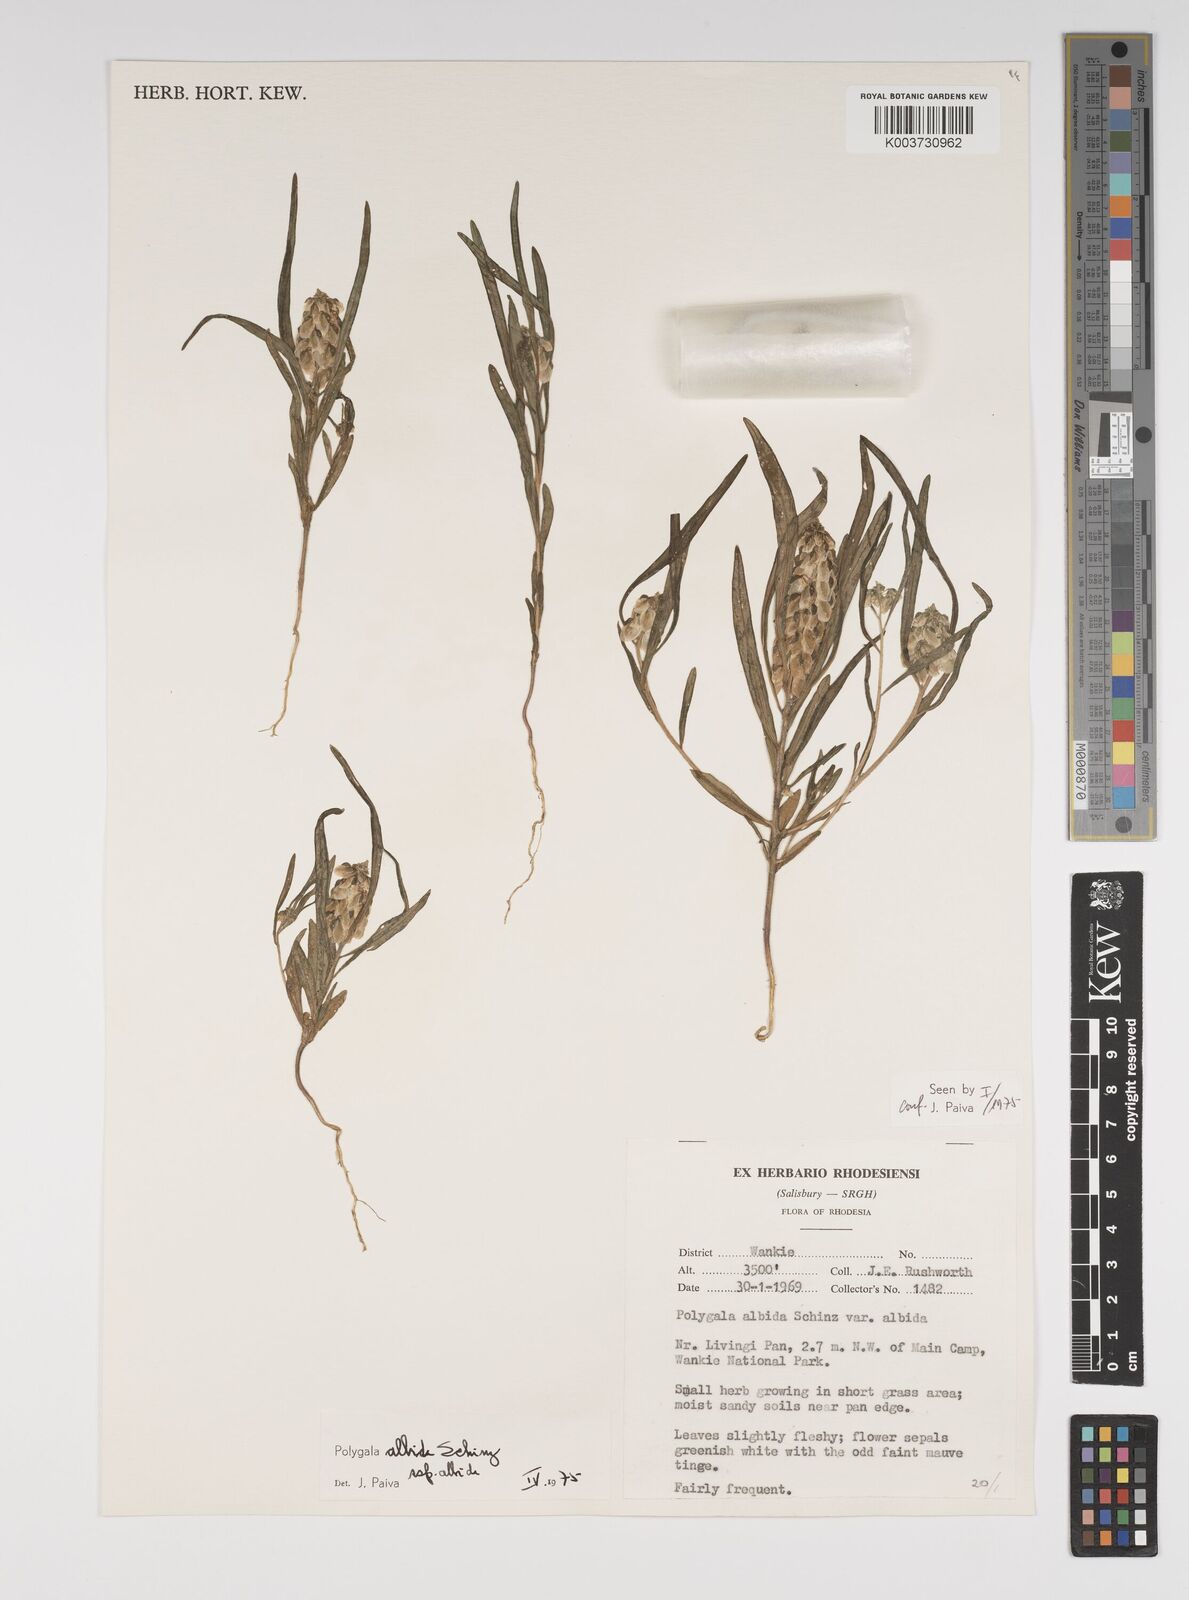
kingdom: Plantae
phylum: Tracheophyta
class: Magnoliopsida
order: Fabales
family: Polygalaceae
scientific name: Polygalaceae
